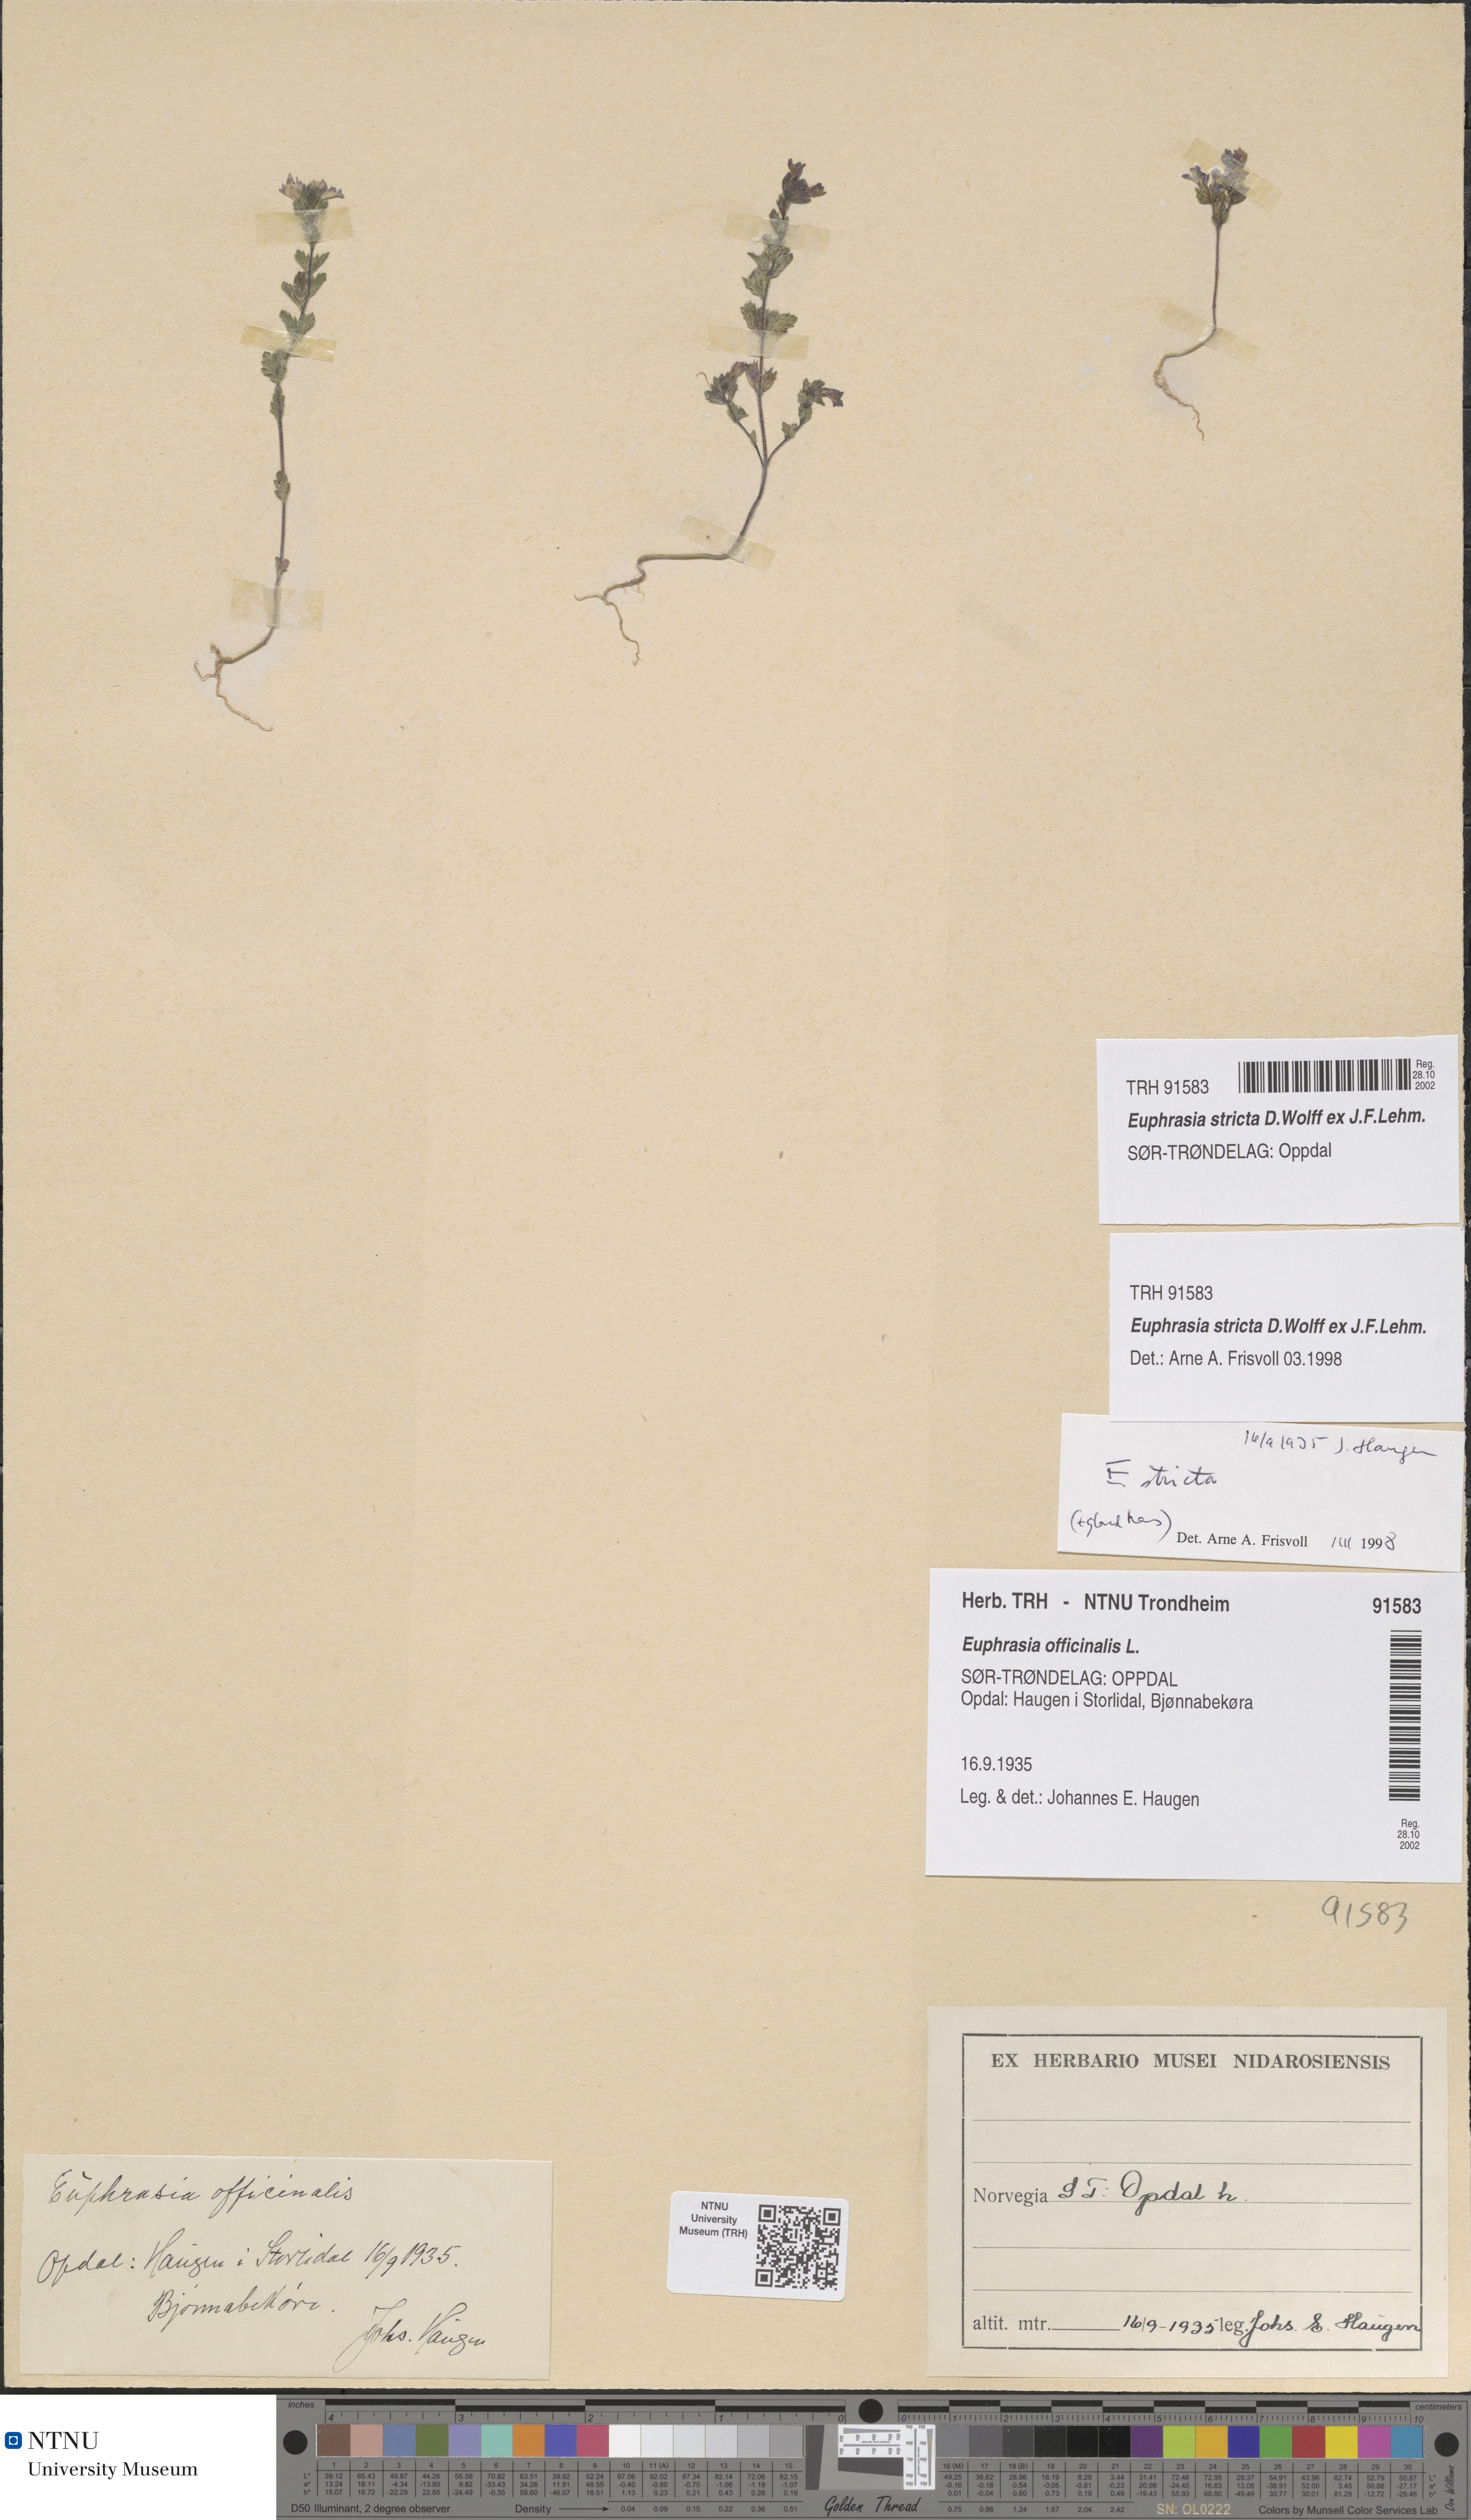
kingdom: Plantae
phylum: Tracheophyta
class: Magnoliopsida
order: Lamiales
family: Orobanchaceae
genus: Euphrasia
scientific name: Euphrasia stricta
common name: Drug eyebright
